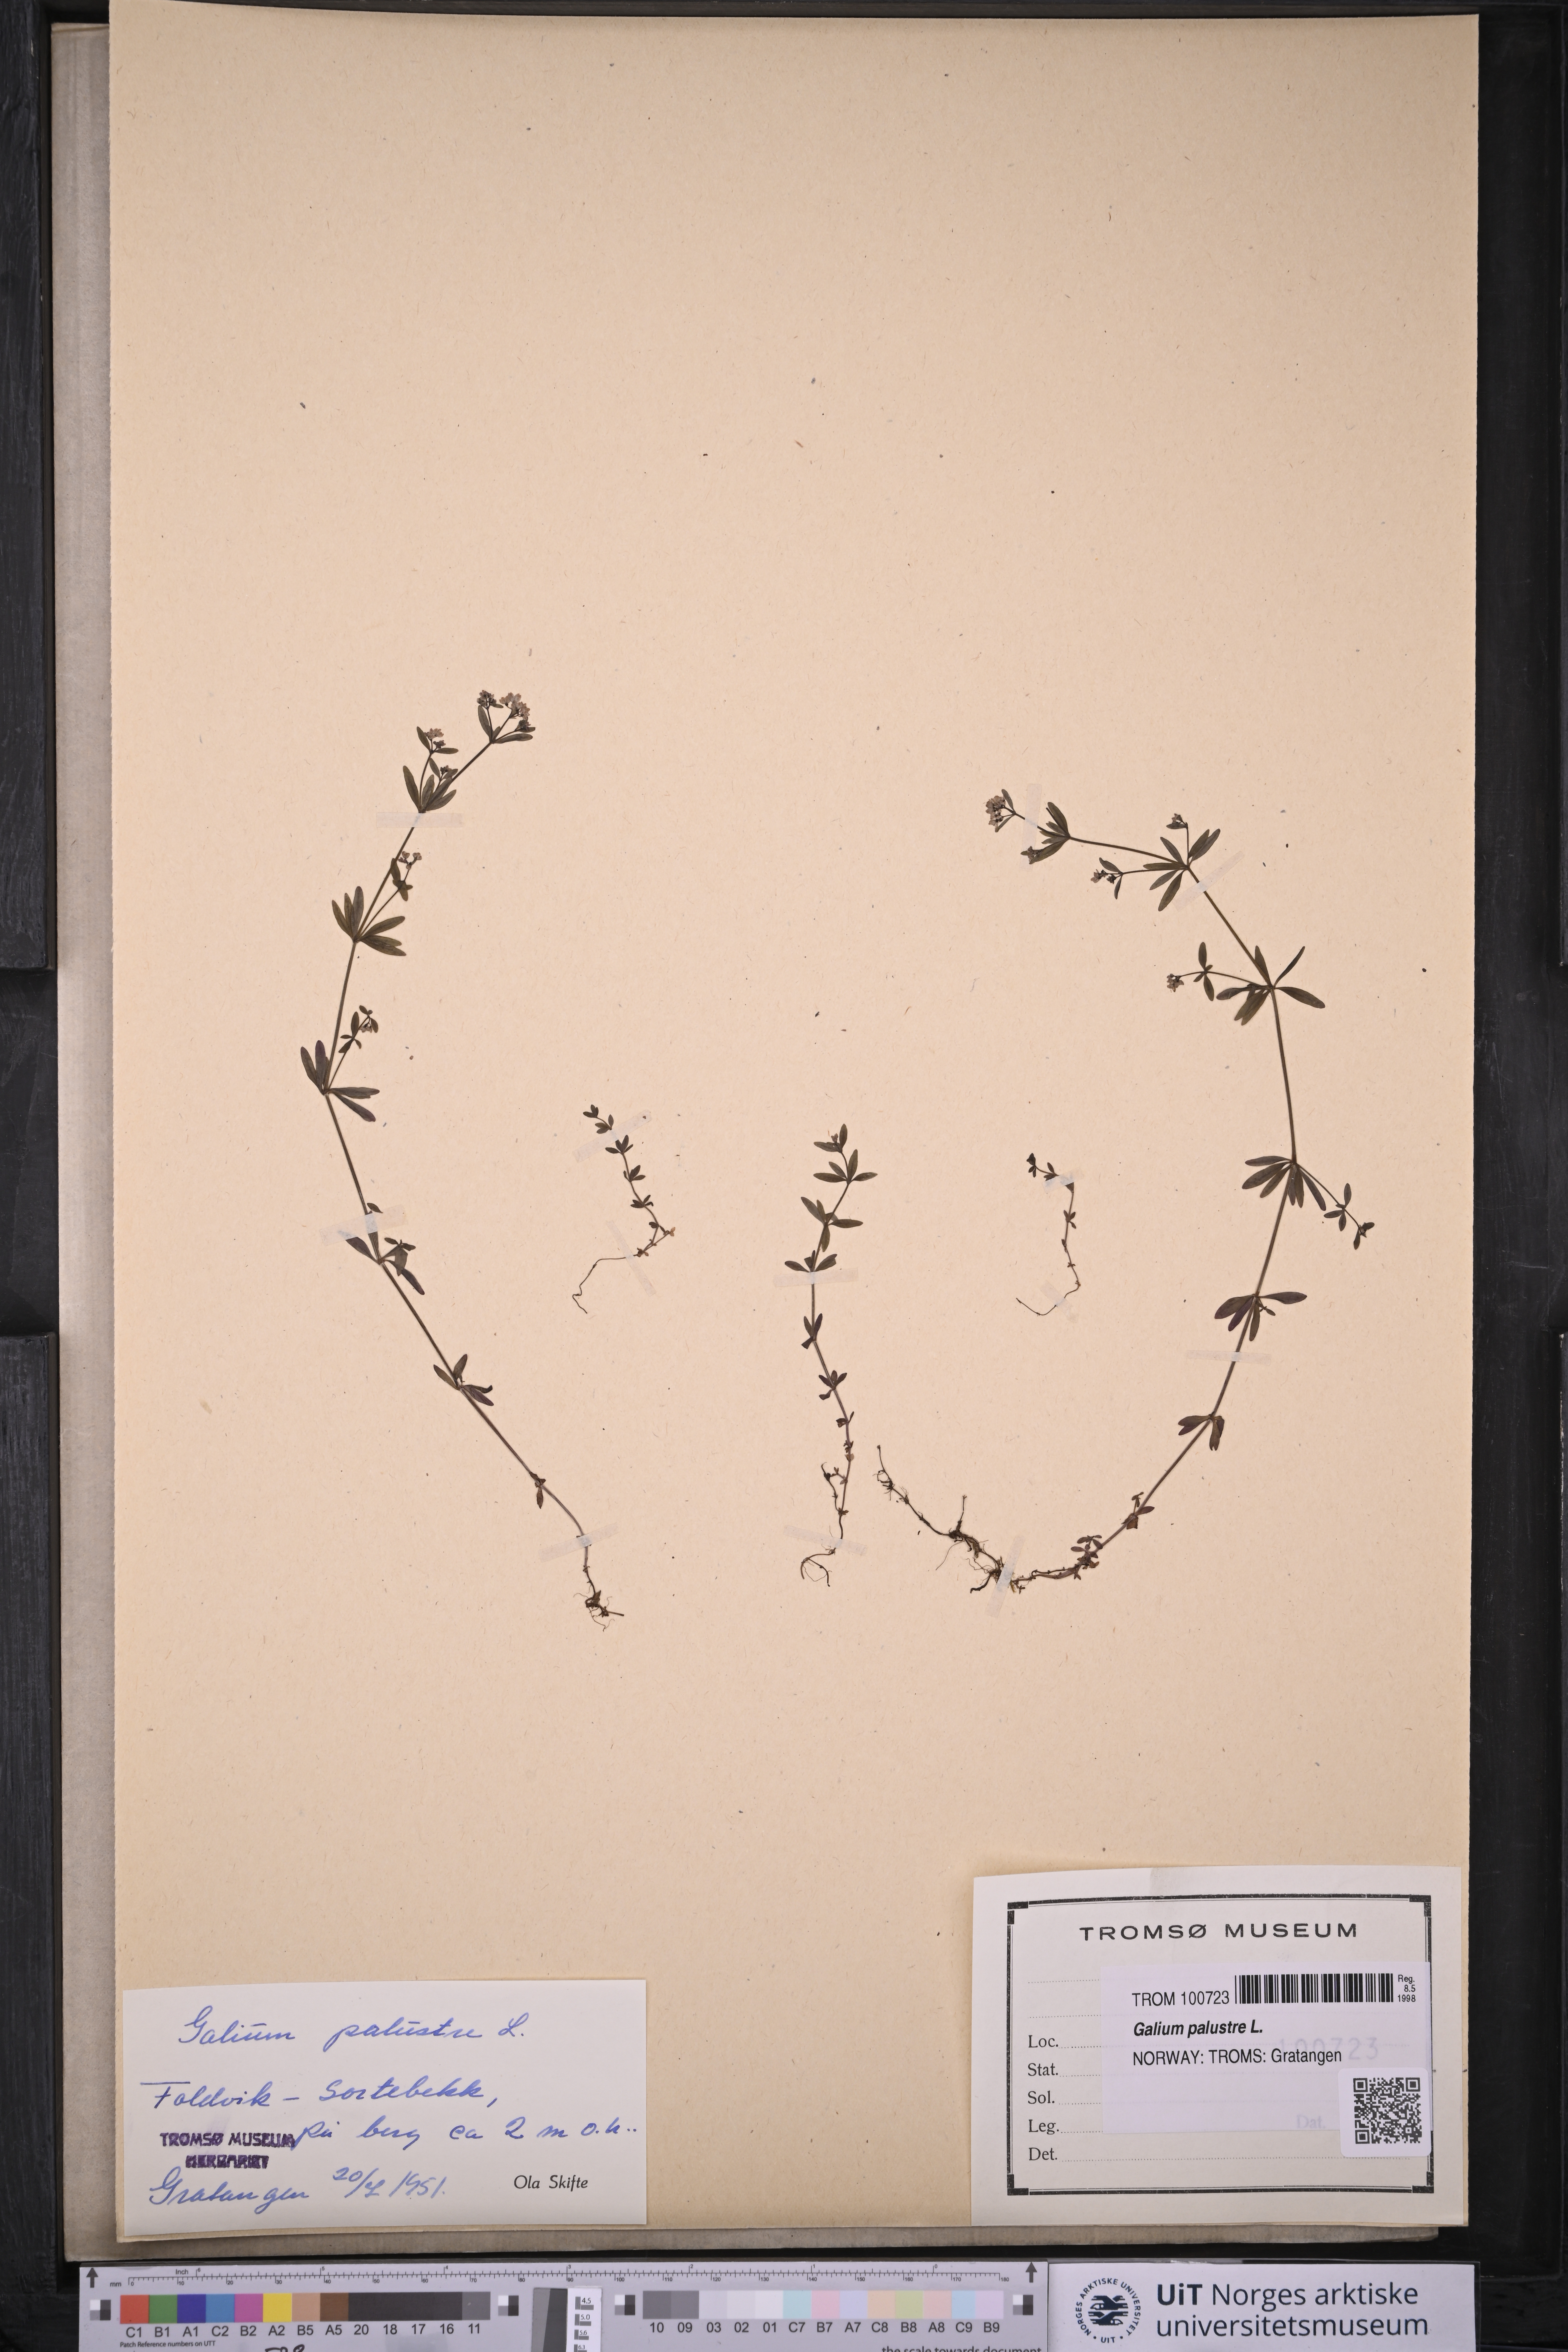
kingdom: Plantae
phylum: Tracheophyta
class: Magnoliopsida
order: Gentianales
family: Rubiaceae
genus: Galium
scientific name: Galium palustre
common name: Common marsh-bedstraw
